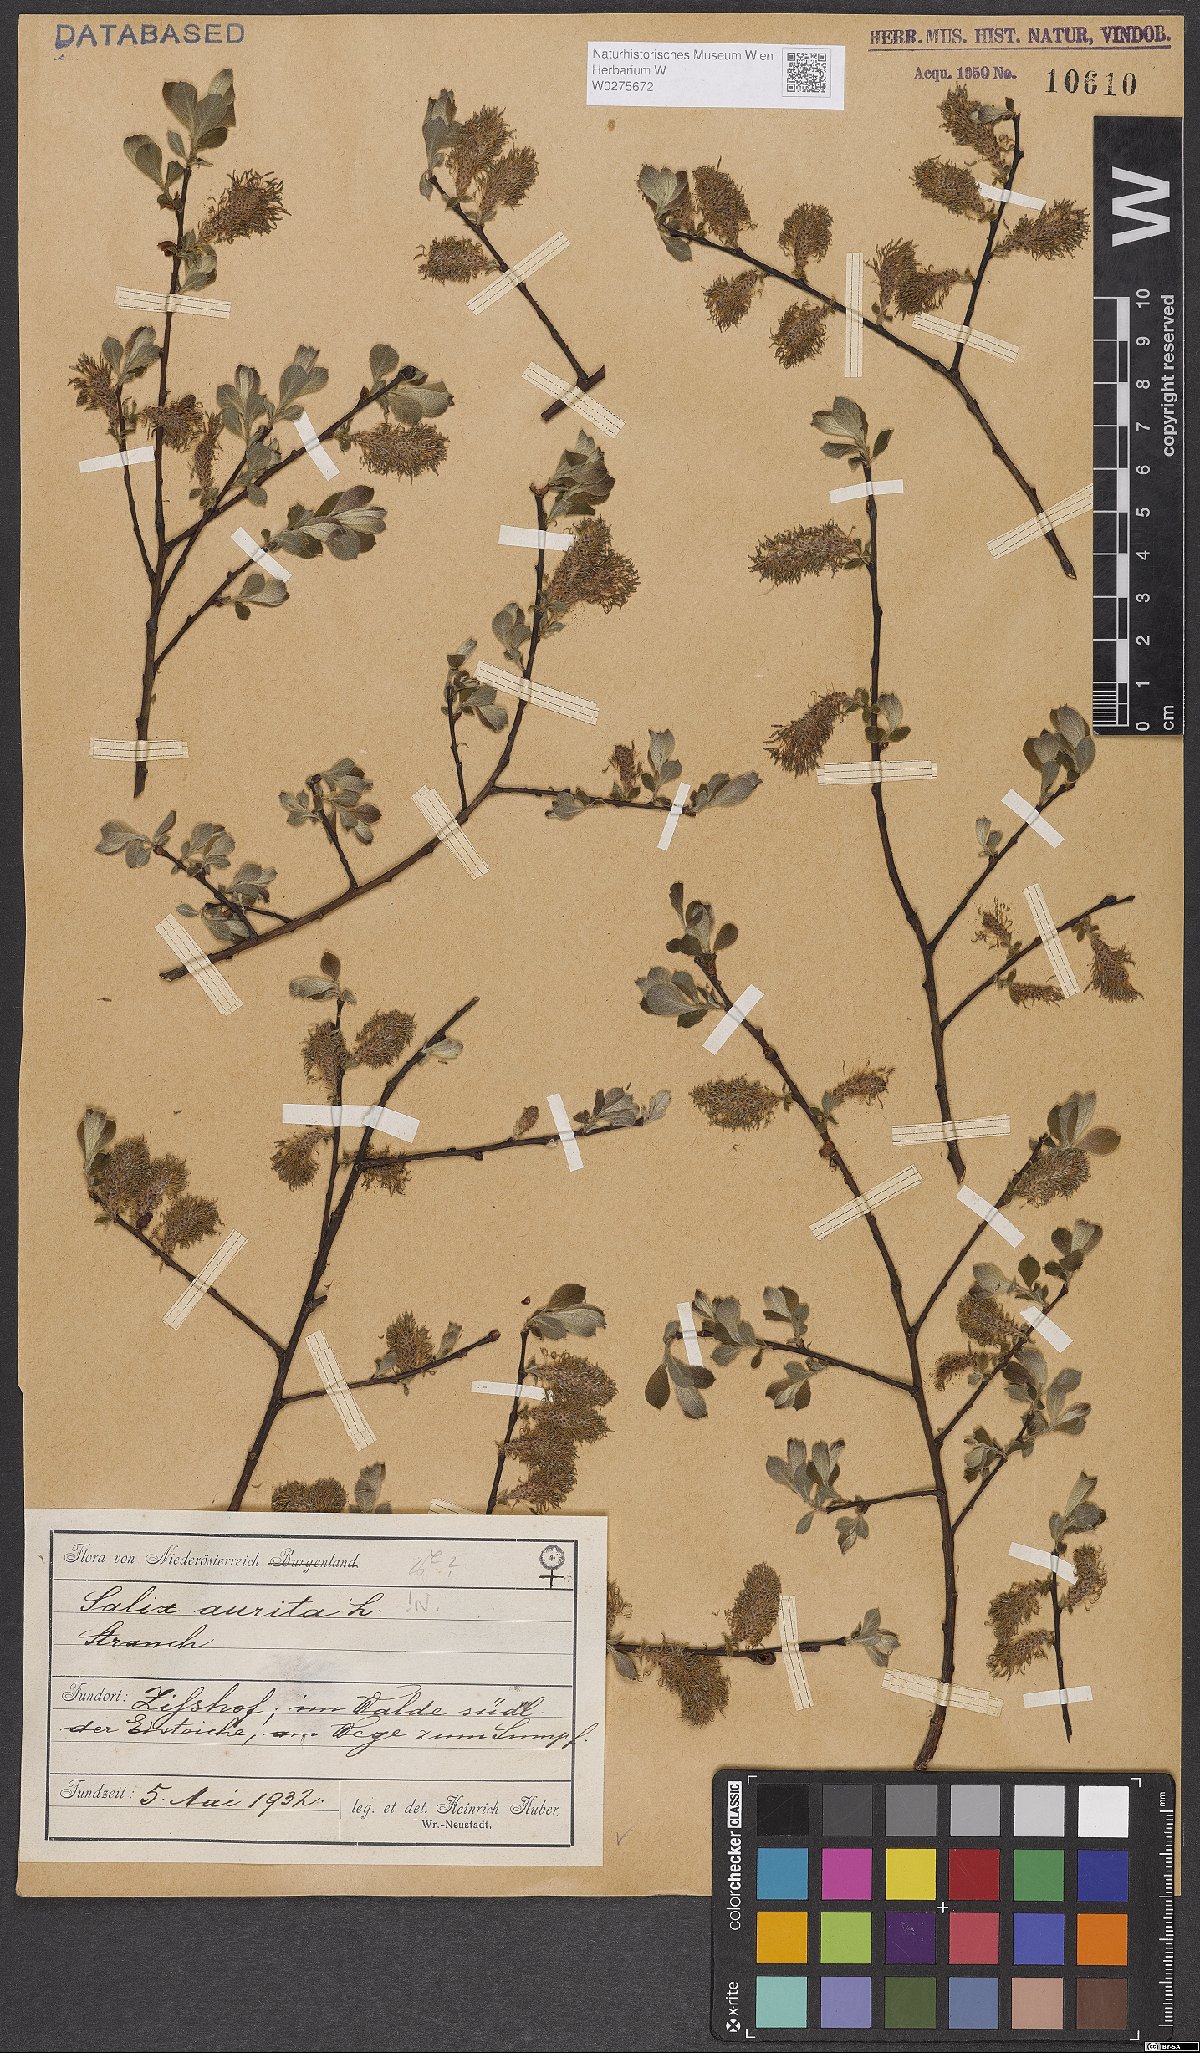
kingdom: Plantae
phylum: Tracheophyta
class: Magnoliopsida
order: Malpighiales
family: Salicaceae
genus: Salix
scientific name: Salix aurita
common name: Eared willow
